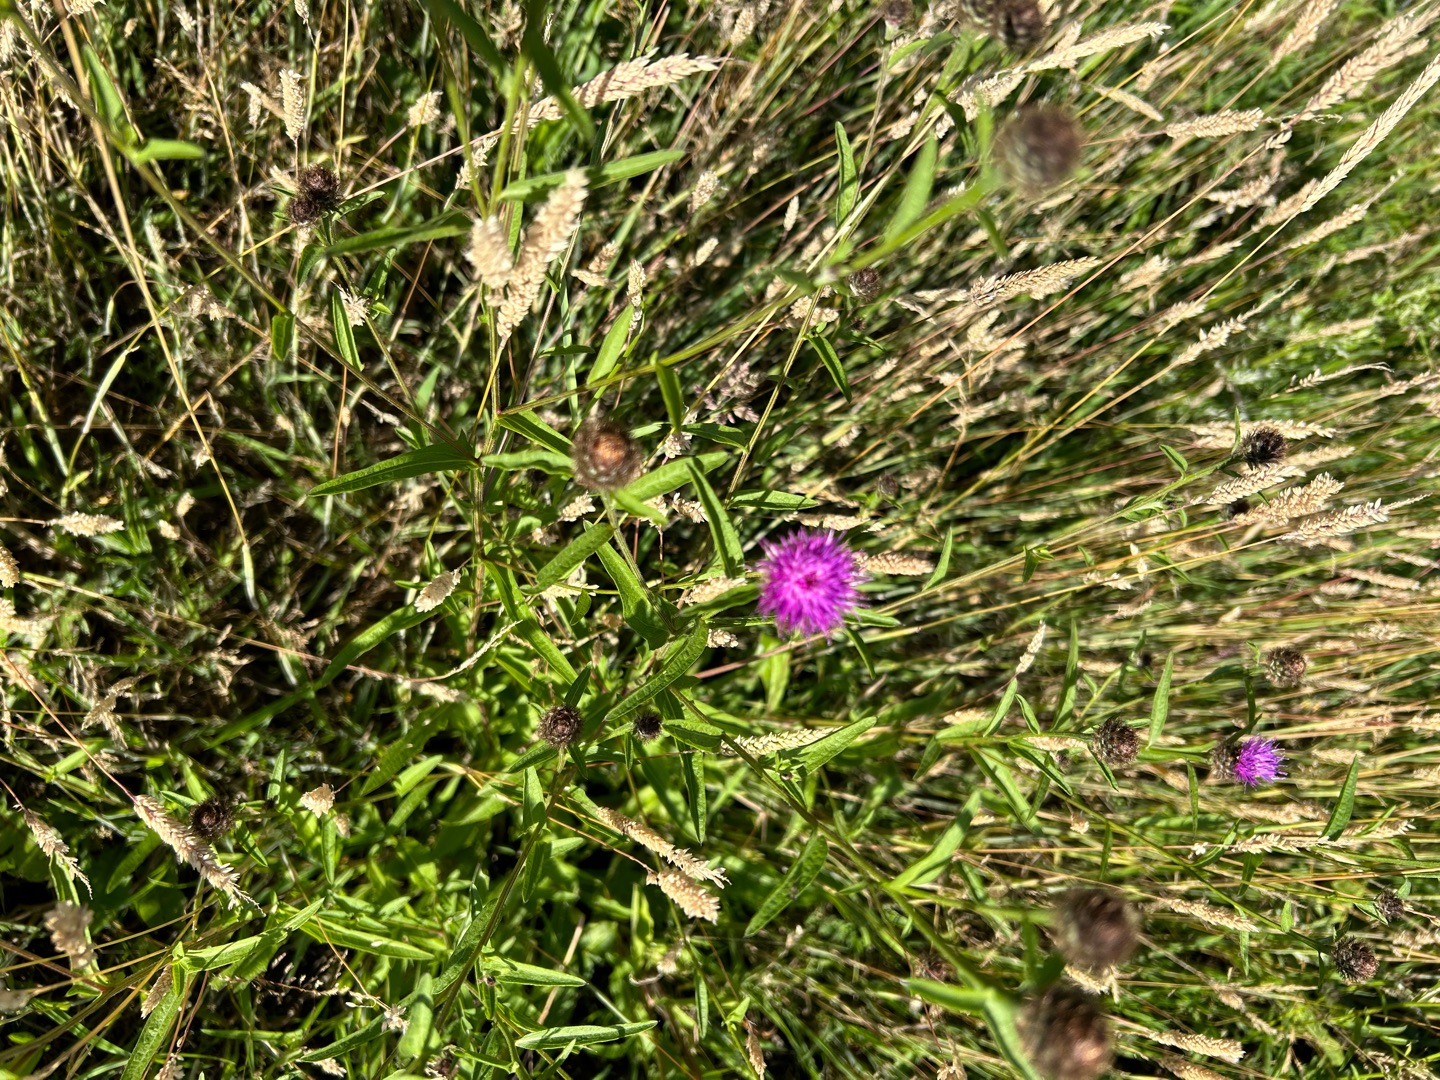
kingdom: Plantae
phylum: Tracheophyta
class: Magnoliopsida
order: Asterales
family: Asteraceae
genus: Centaurea
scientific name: Centaurea nigra
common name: Sorthoved-knopurt
